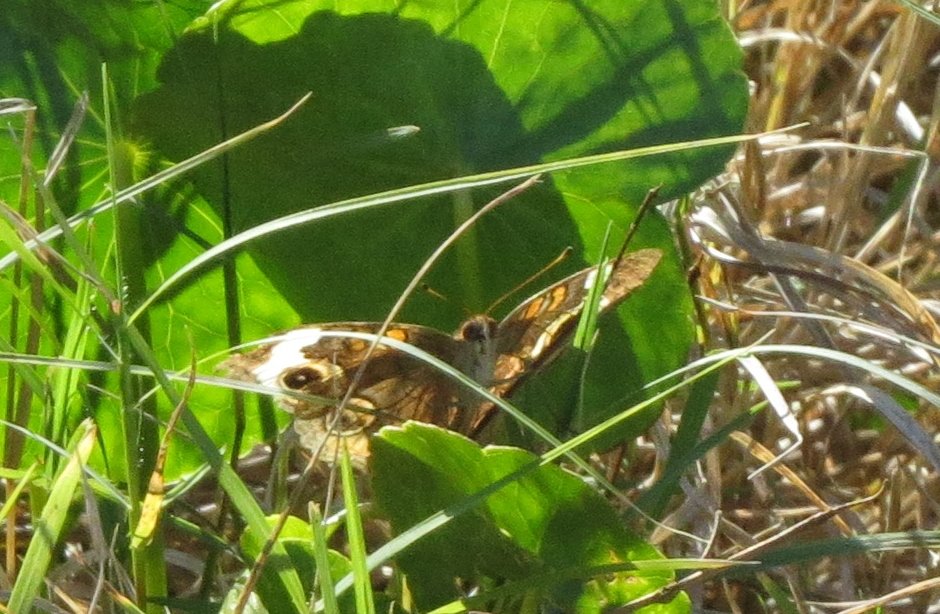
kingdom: Animalia
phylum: Arthropoda
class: Insecta
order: Lepidoptera
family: Nymphalidae
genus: Junonia
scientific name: Junonia coenia
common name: Common Buckeye
